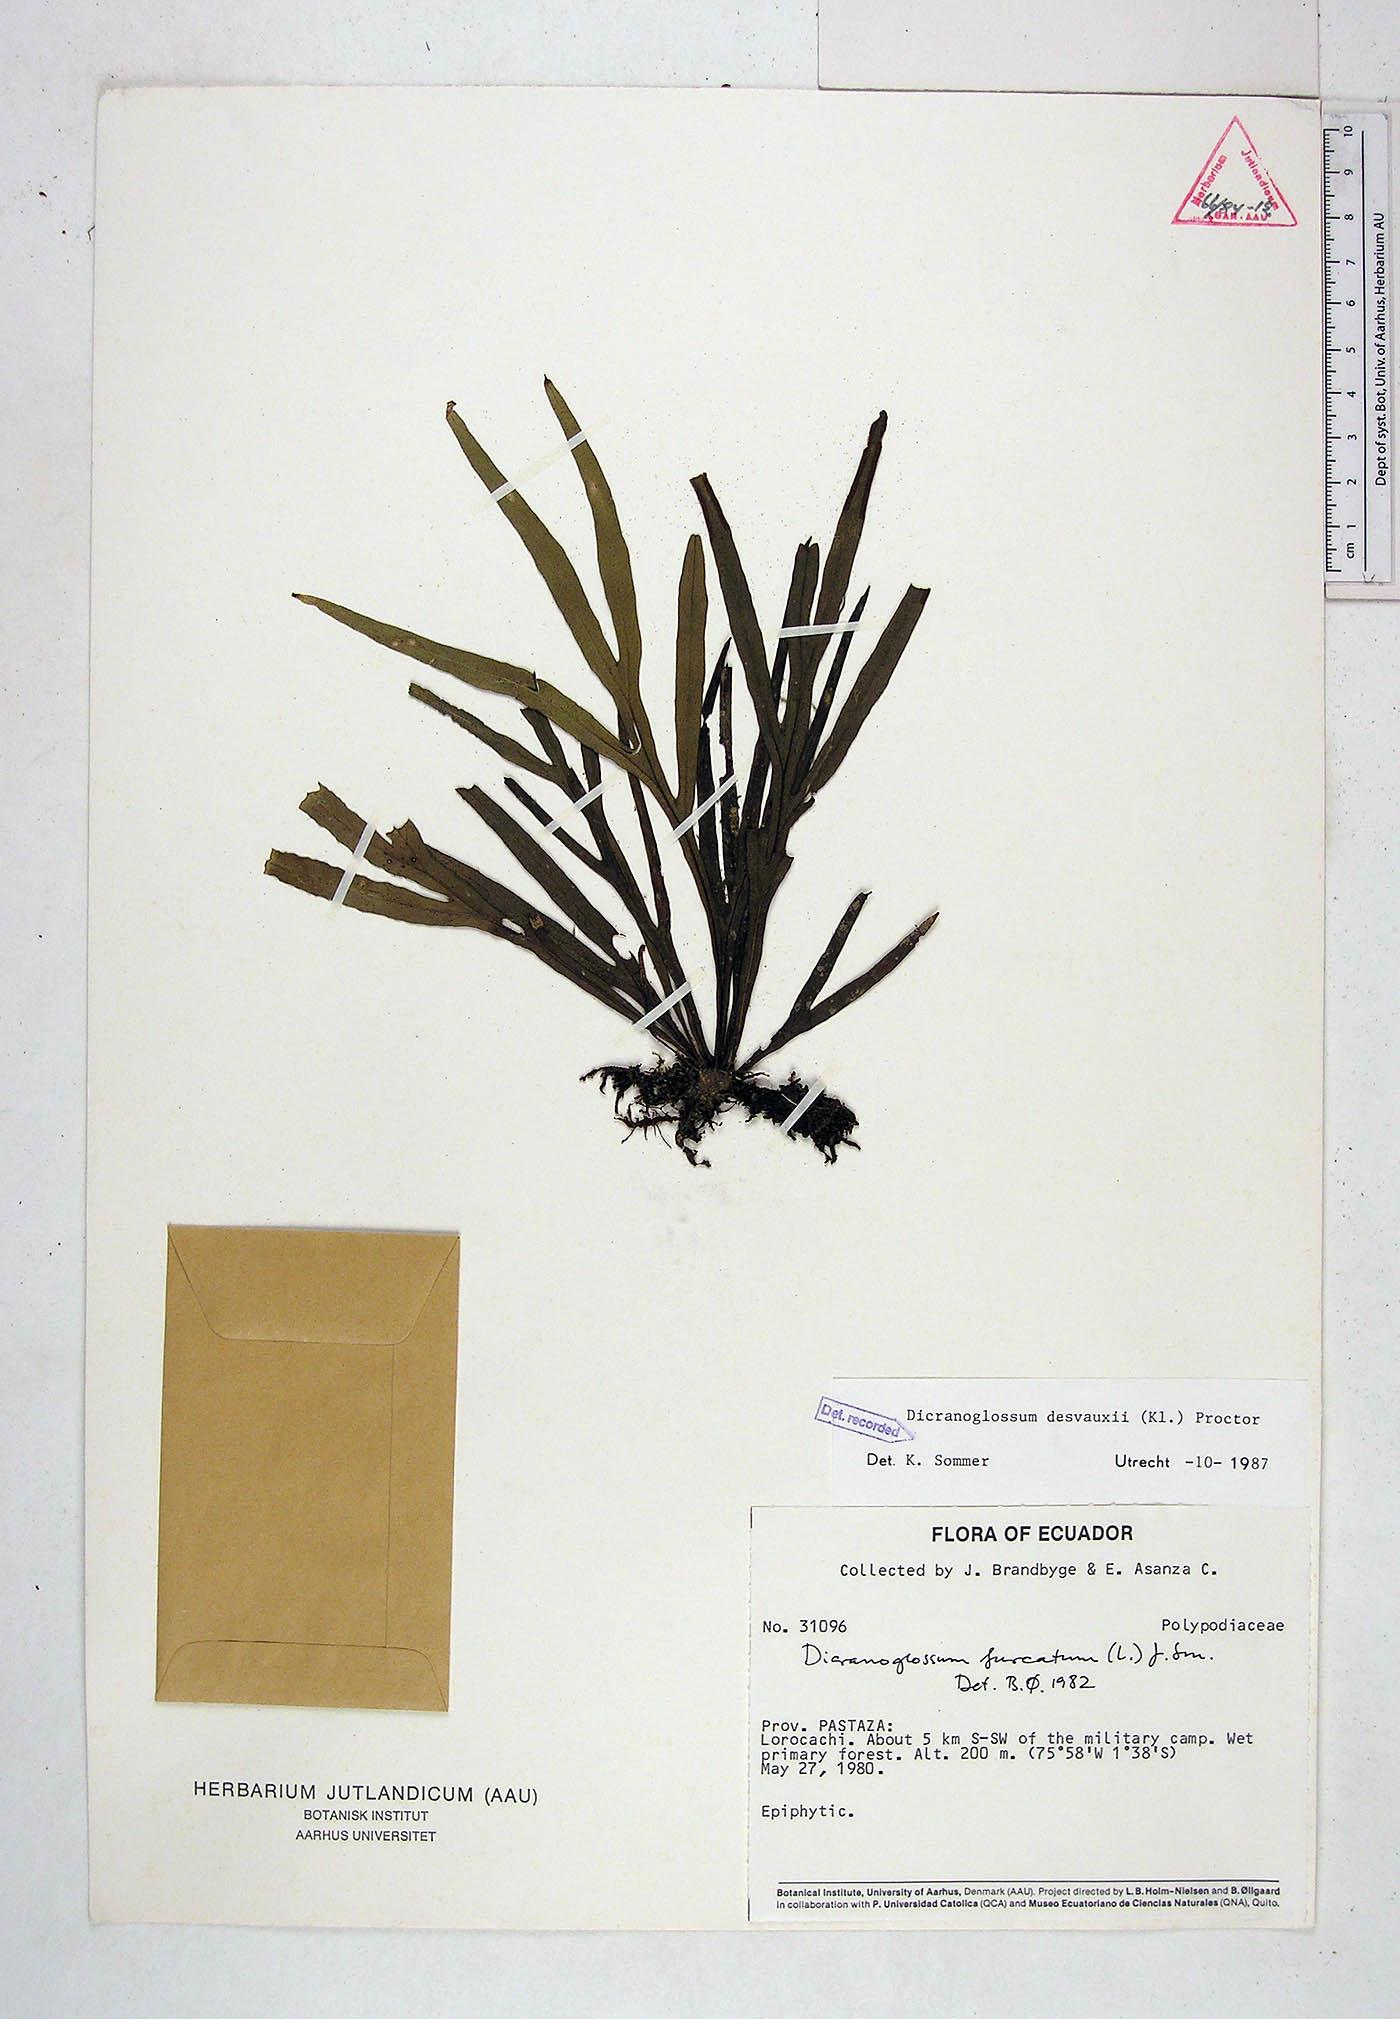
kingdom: Plantae
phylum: Tracheophyta
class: Polypodiopsida
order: Polypodiales
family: Polypodiaceae
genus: Pleopeltis
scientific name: Pleopeltis desvauxii
